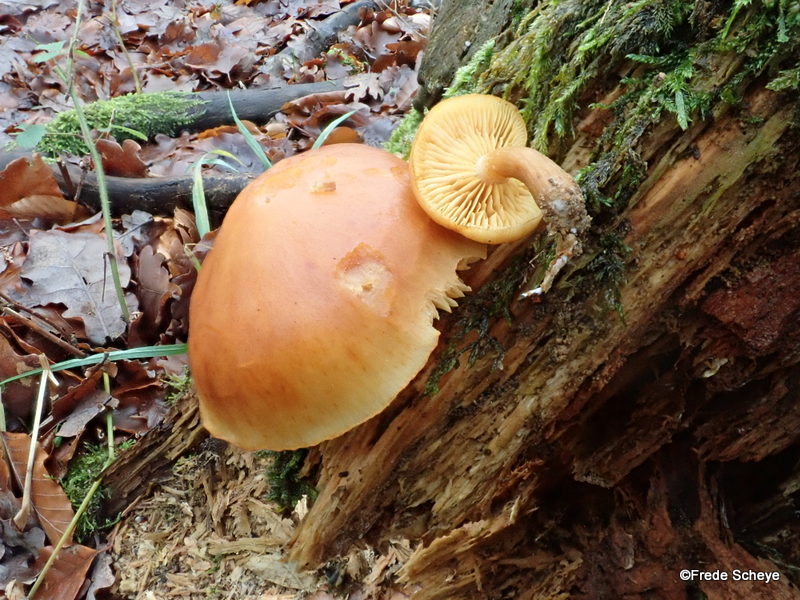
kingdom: Fungi
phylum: Basidiomycota
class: Agaricomycetes
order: Agaricales
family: Hymenogastraceae
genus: Gymnopilus
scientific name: Gymnopilus penetrans
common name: plettet flammehat
